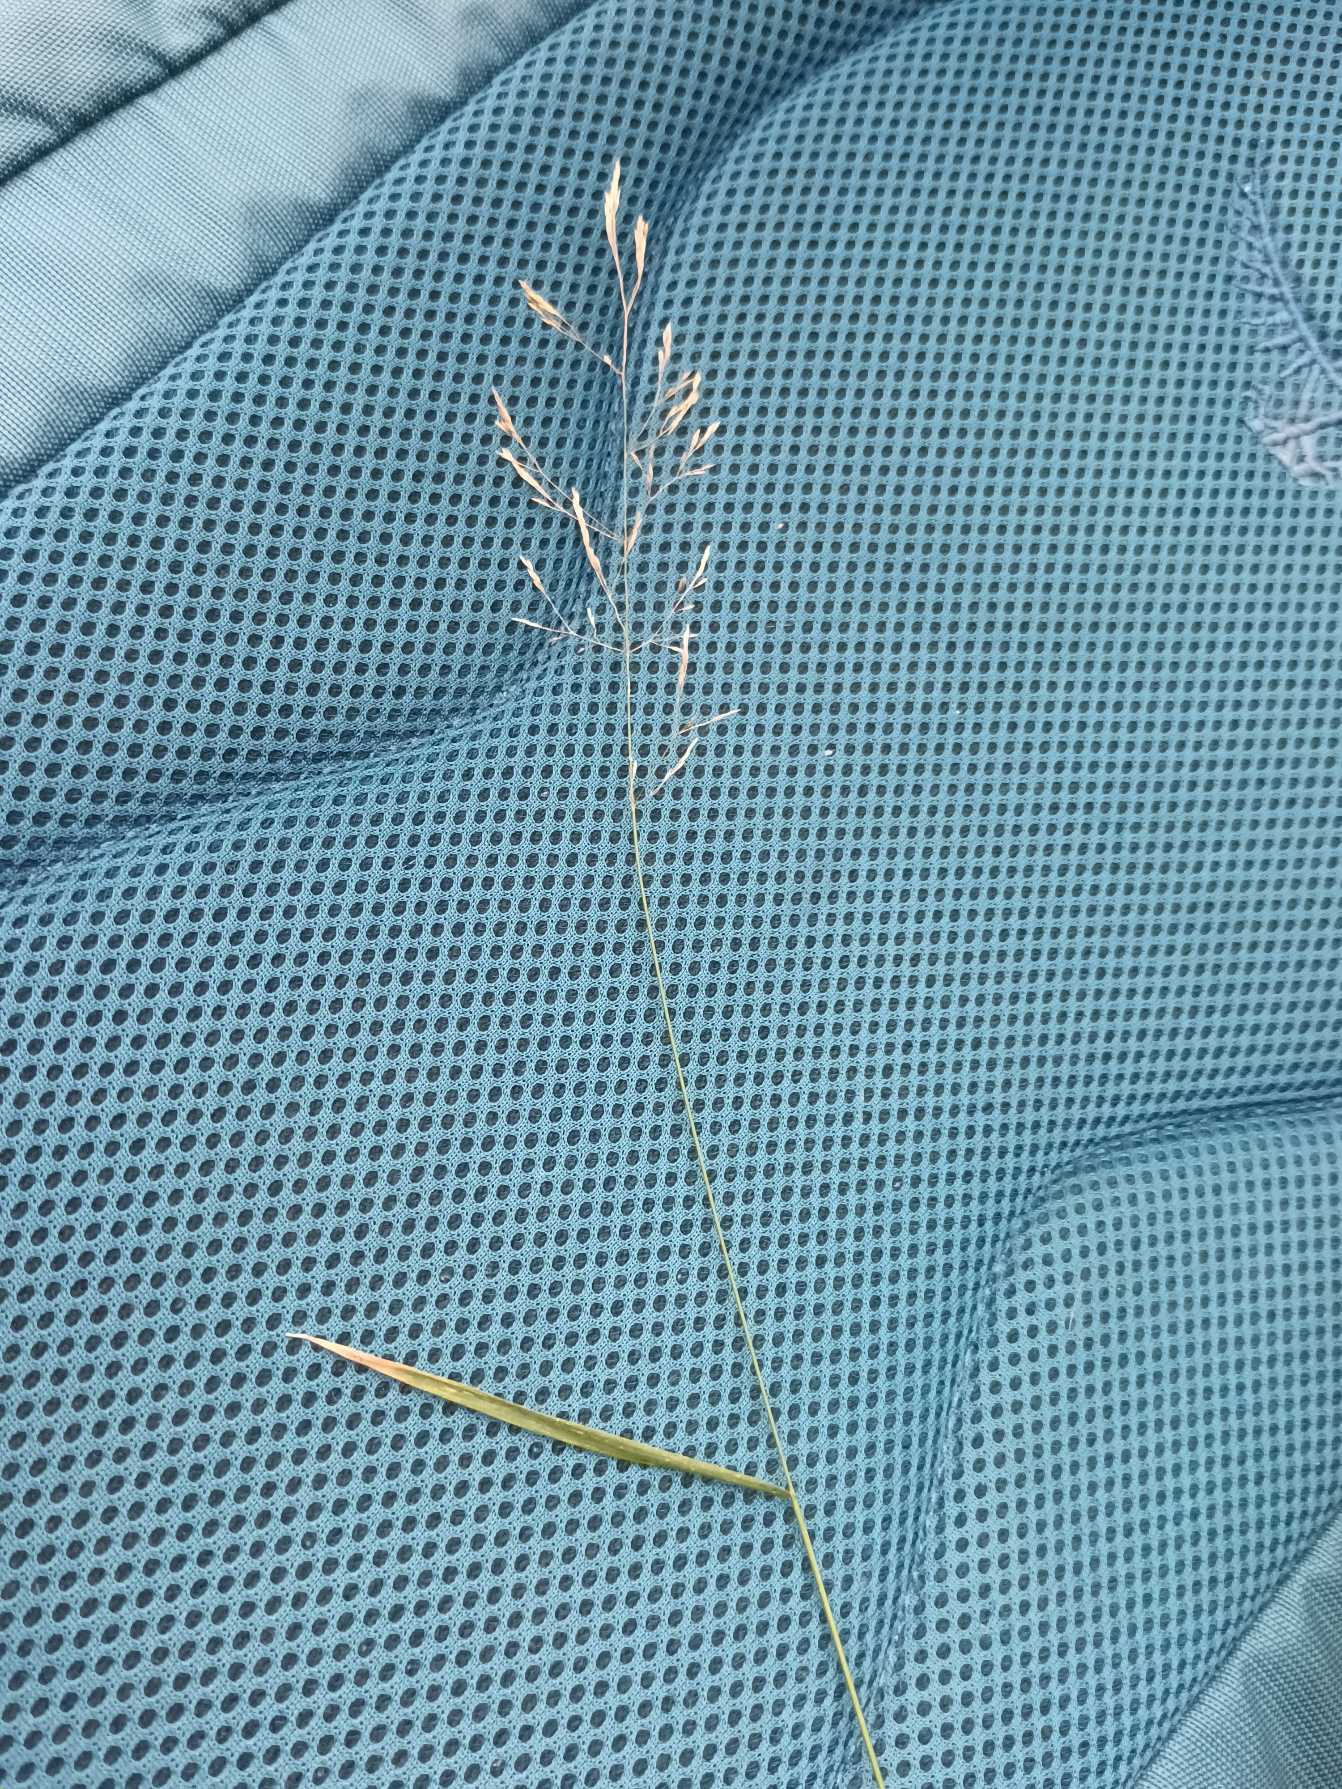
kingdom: Plantae
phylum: Tracheophyta
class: Liliopsida
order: Poales
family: Poaceae
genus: Agrostis
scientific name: Agrostis capillaris
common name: Almindelig hvene
